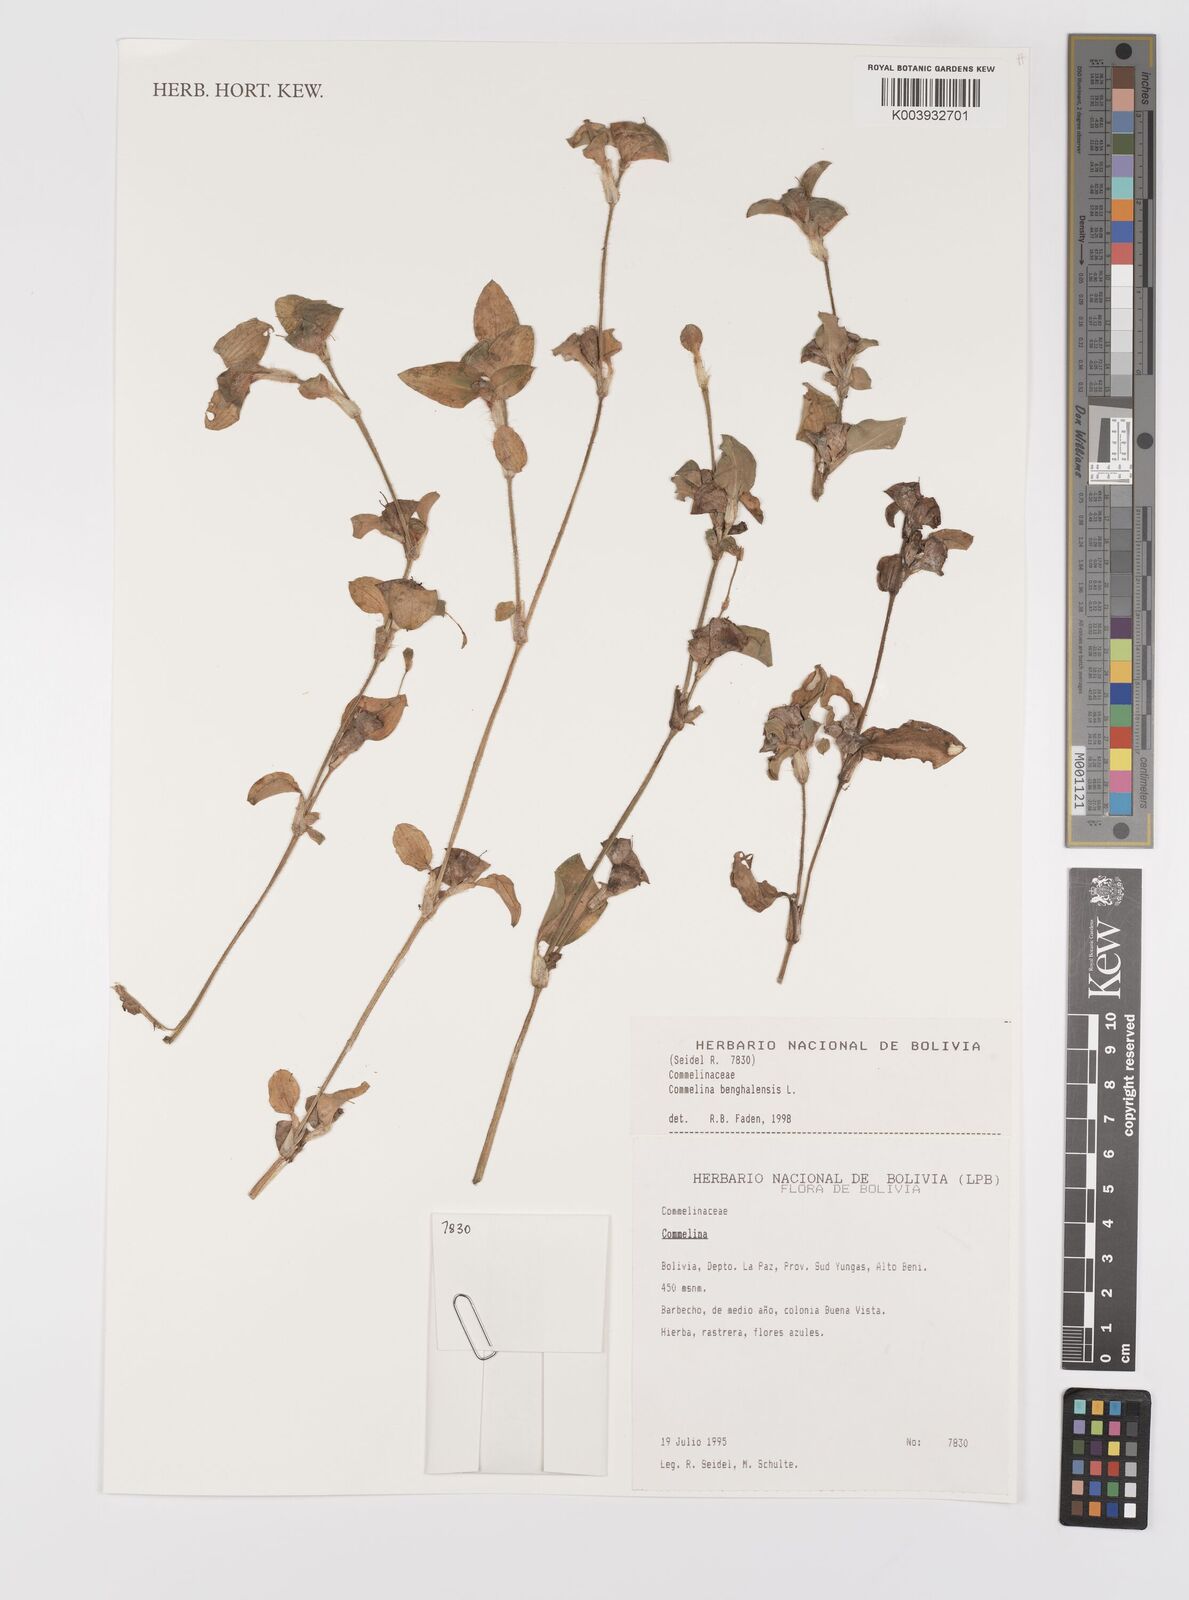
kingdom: Plantae
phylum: Tracheophyta
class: Liliopsida
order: Commelinales
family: Commelinaceae
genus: Commelina
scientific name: Commelina benghalensis
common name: Jio
